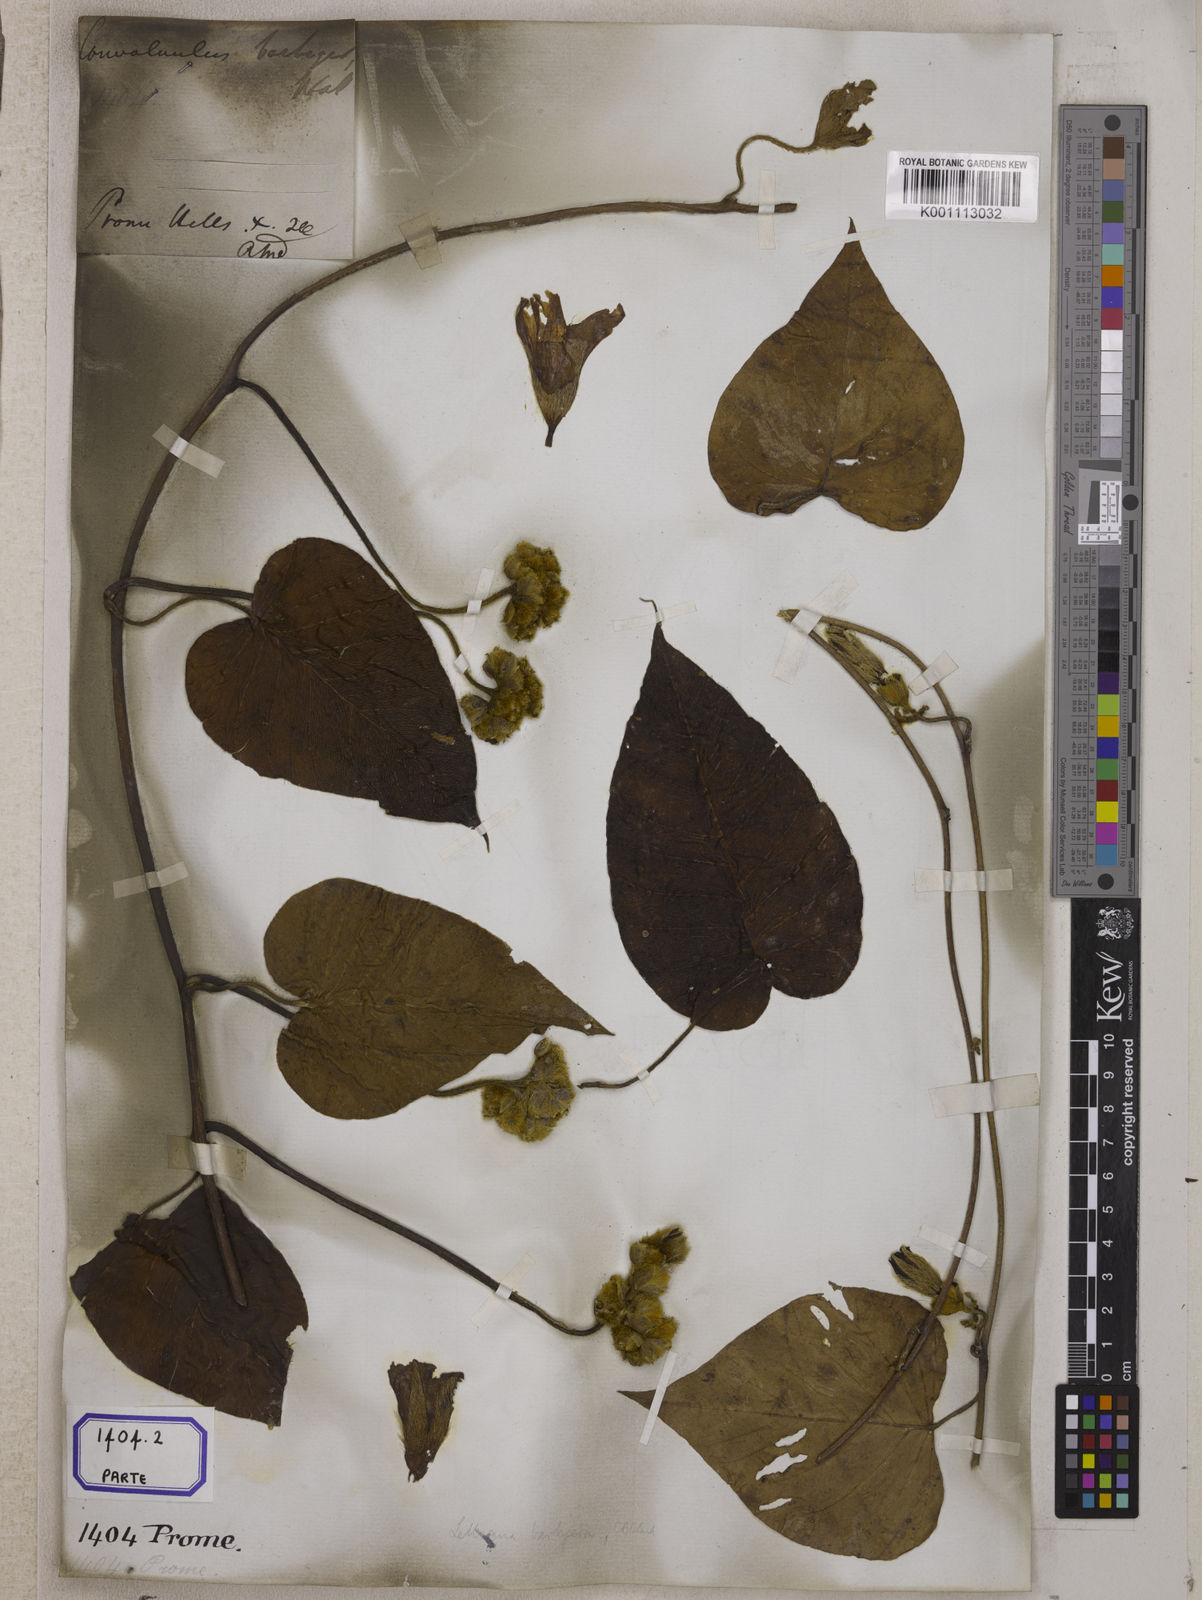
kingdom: Plantae
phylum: Tracheophyta
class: Magnoliopsida
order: Solanales
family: Convolvulaceae
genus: Argyreia
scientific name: Argyreia barbigera
